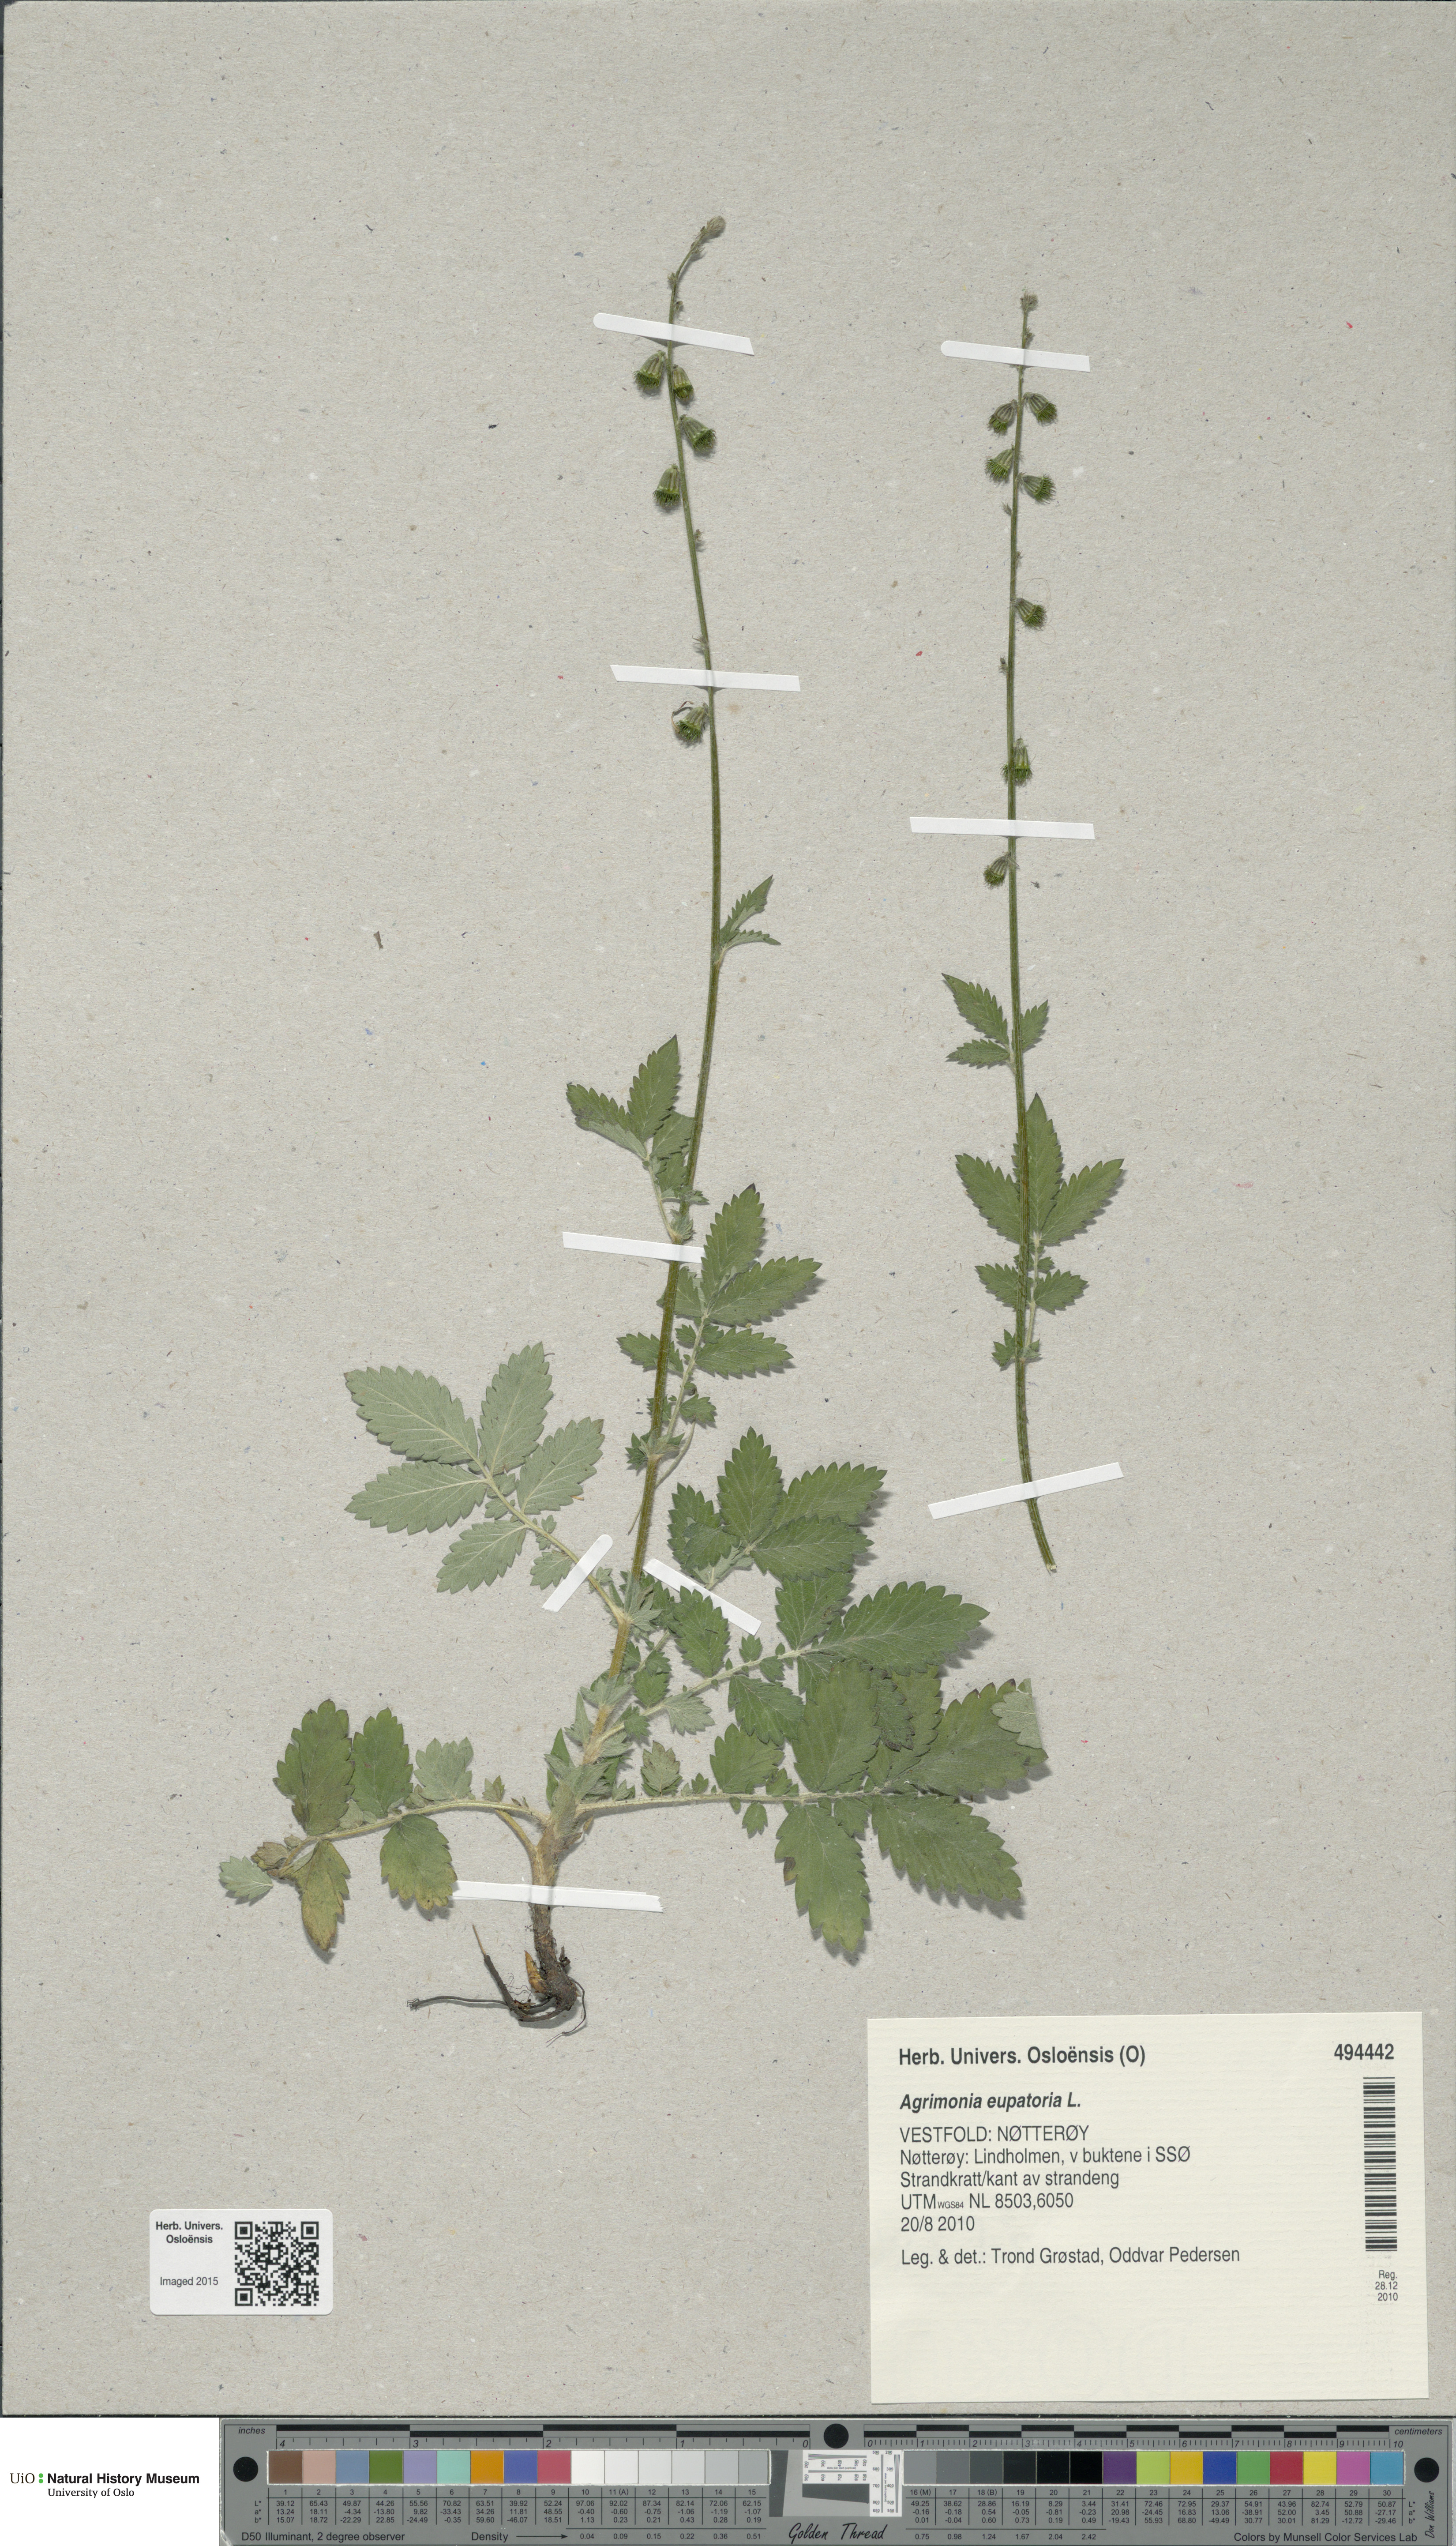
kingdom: Plantae
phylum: Tracheophyta
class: Magnoliopsida
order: Rosales
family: Rosaceae
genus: Agrimonia
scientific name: Agrimonia eupatoria
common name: Agrimony
